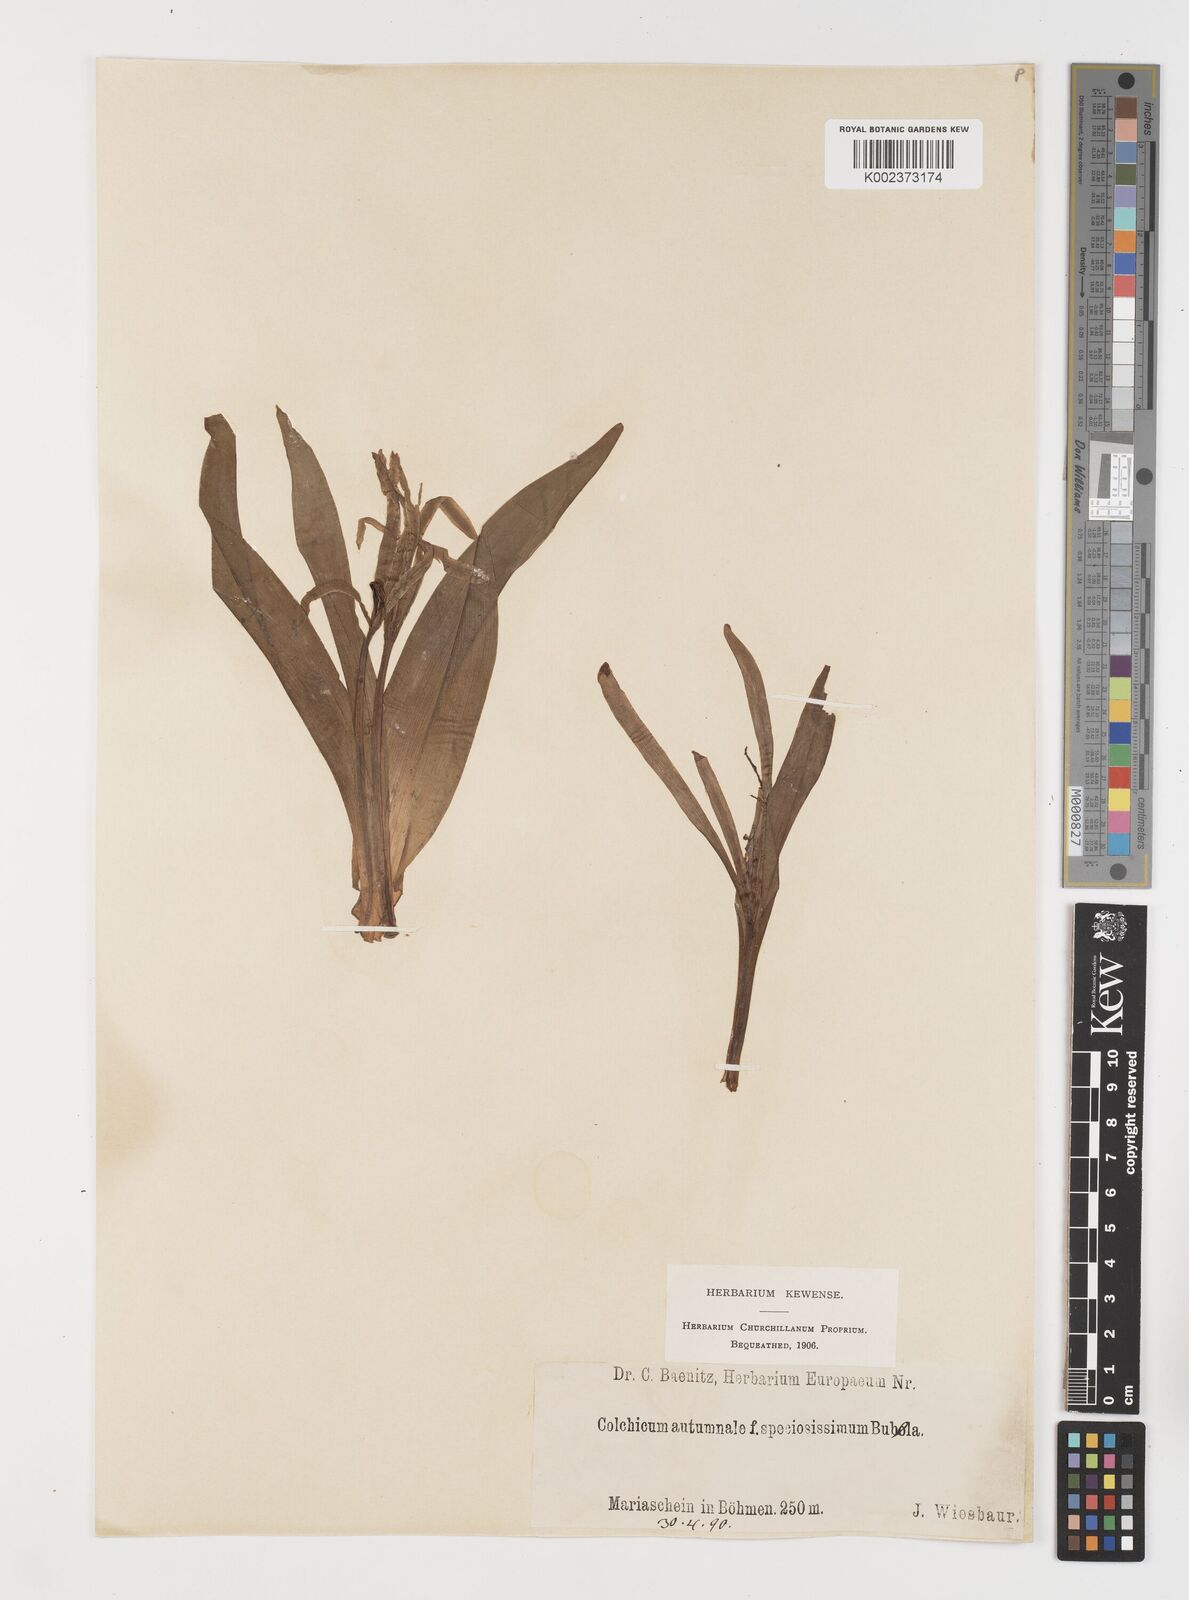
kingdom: Plantae
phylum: Tracheophyta
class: Liliopsida
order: Liliales
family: Colchicaceae
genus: Colchicum
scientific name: Colchicum autumnale
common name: Autumn crocus
